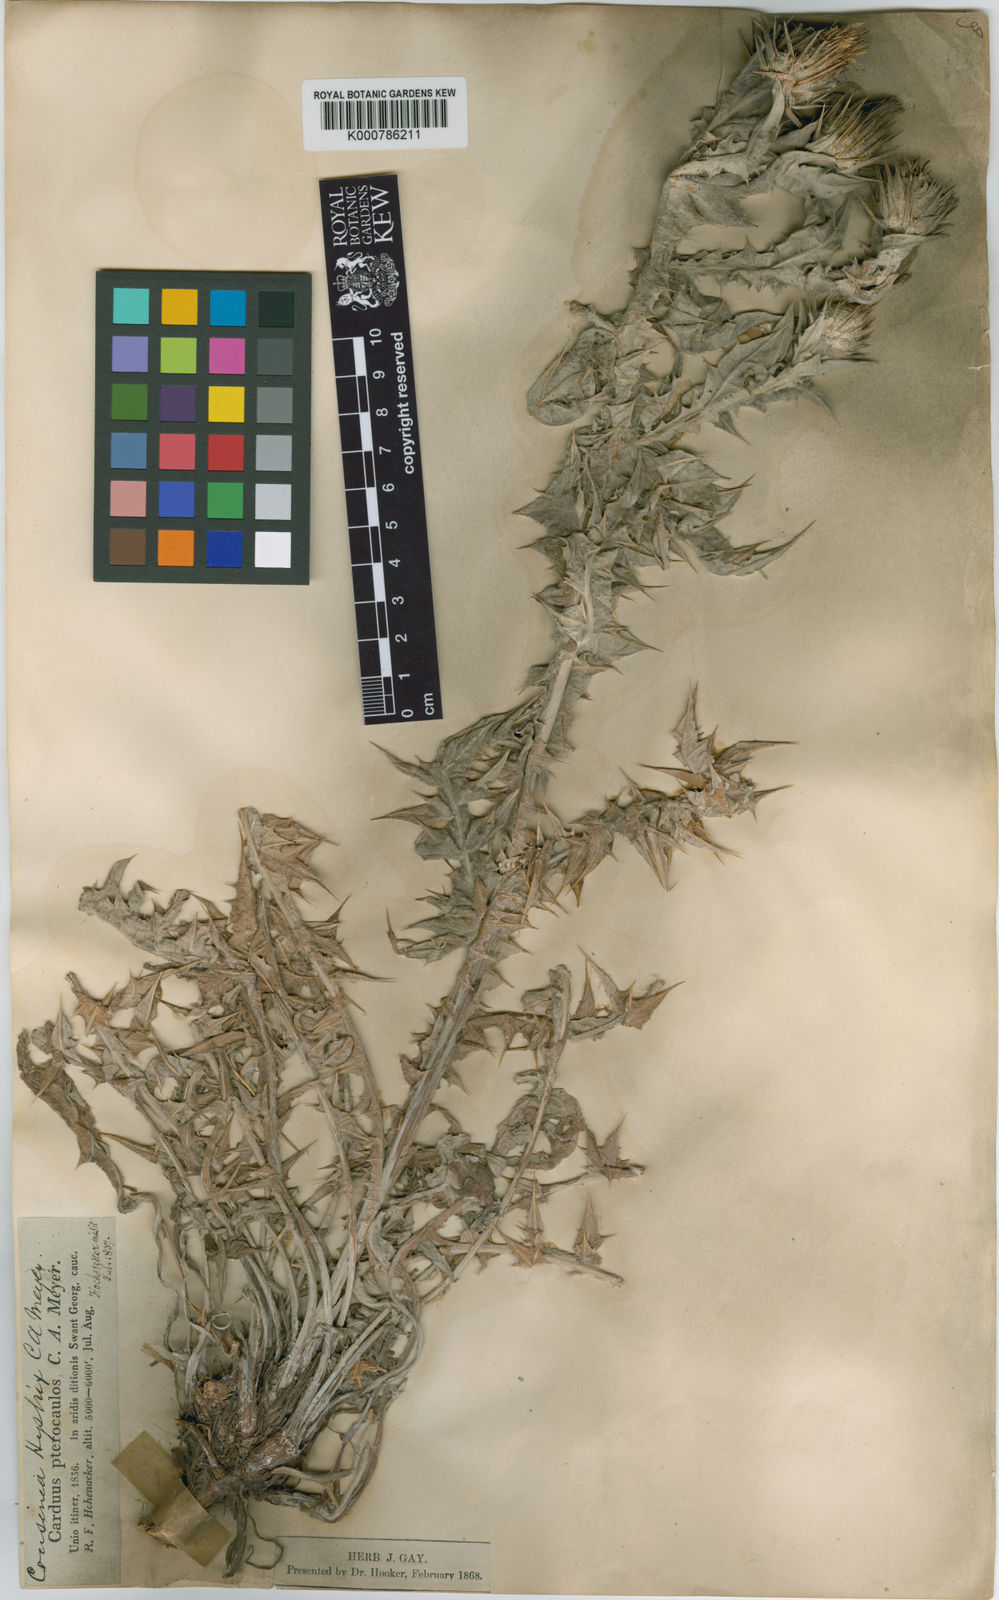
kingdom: Plantae
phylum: Tracheophyta
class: Magnoliopsida
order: Asterales
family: Asteraceae
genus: Cousinia
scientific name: Cousinia pterocaulos
